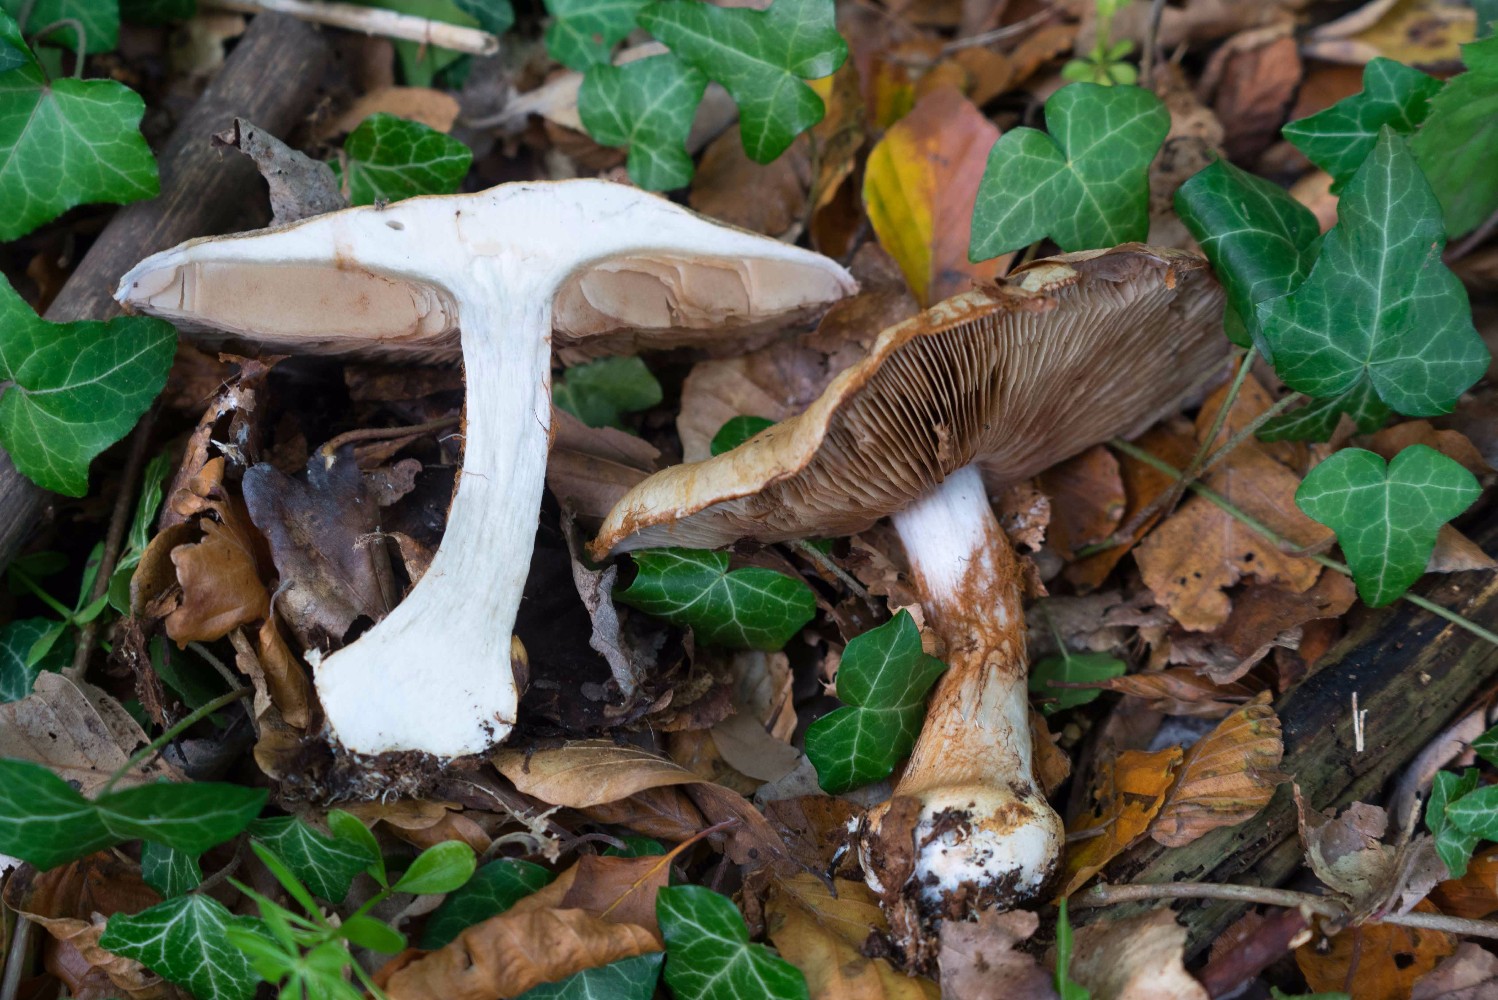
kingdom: Fungi
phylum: Basidiomycota
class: Agaricomycetes
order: Agaricales
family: Cortinariaceae
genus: Cortinarius
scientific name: Cortinarius anserinus
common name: bøge-slørhat
